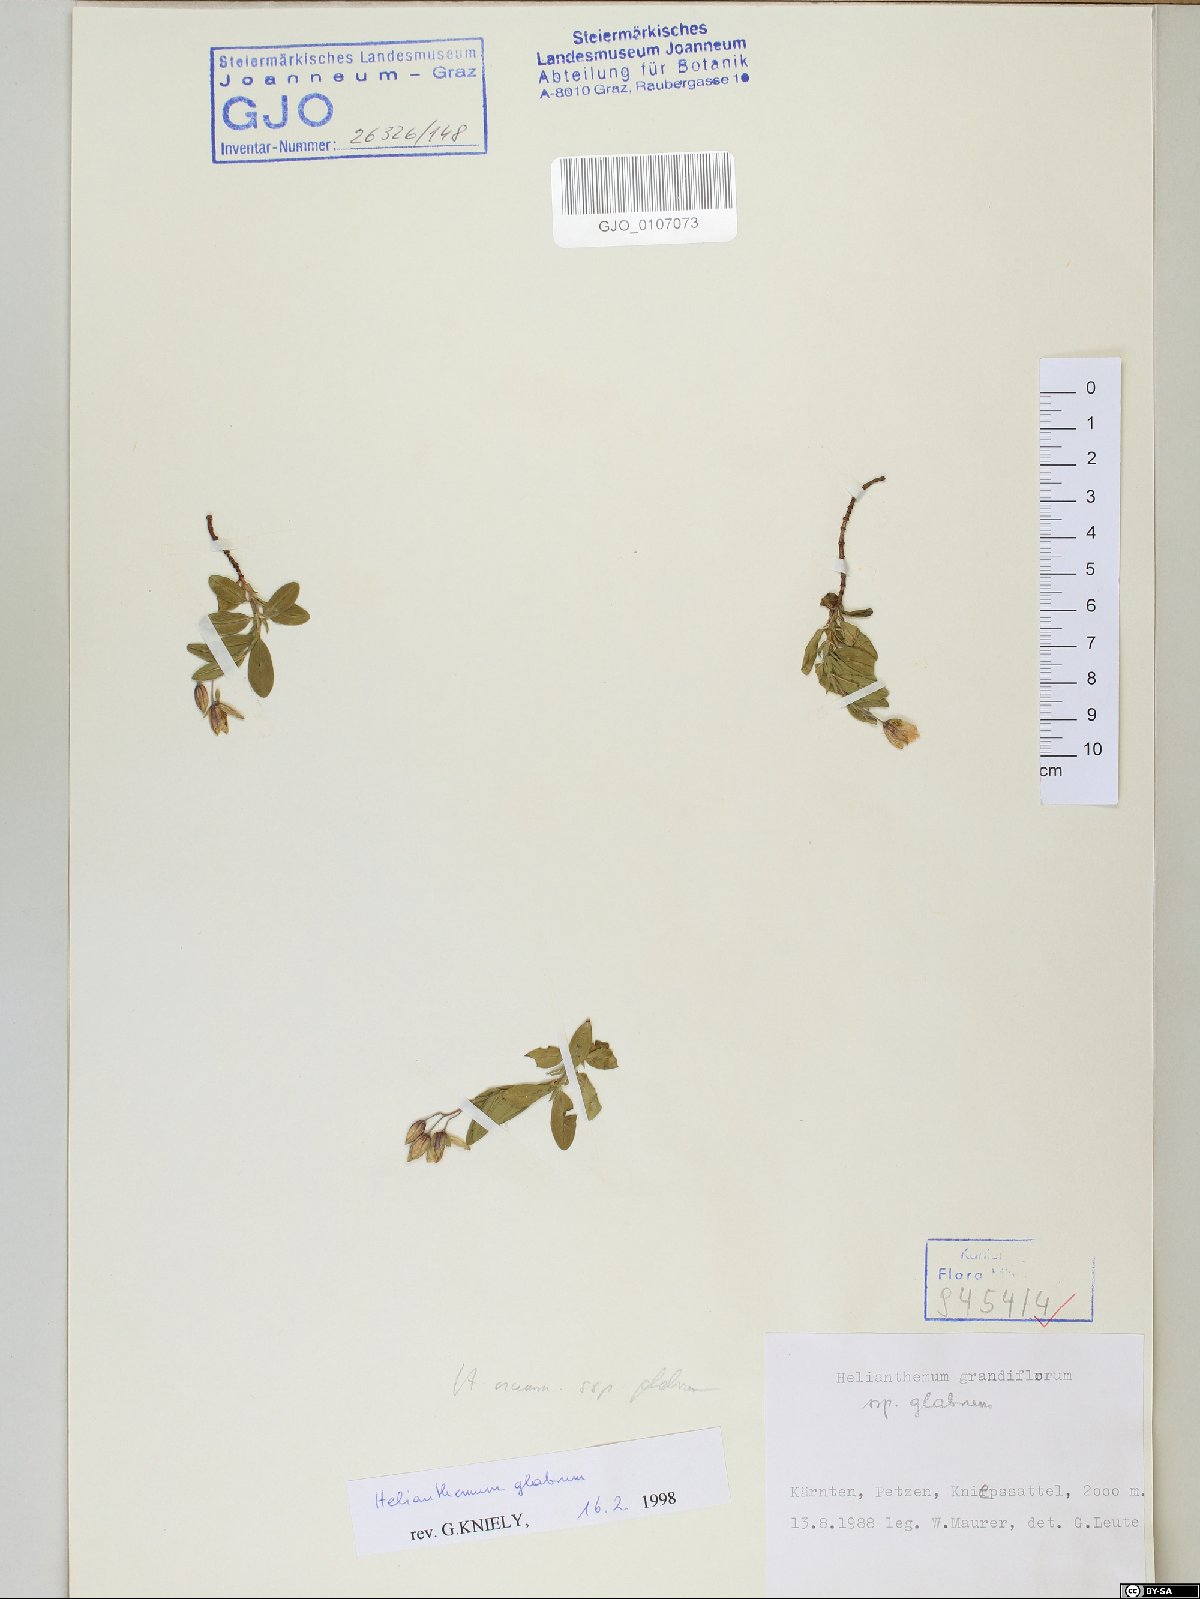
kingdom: Plantae
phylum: Tracheophyta
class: Magnoliopsida
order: Malvales
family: Cistaceae
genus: Helianthemum
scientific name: Helianthemum nummularium
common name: Common rock-rose
